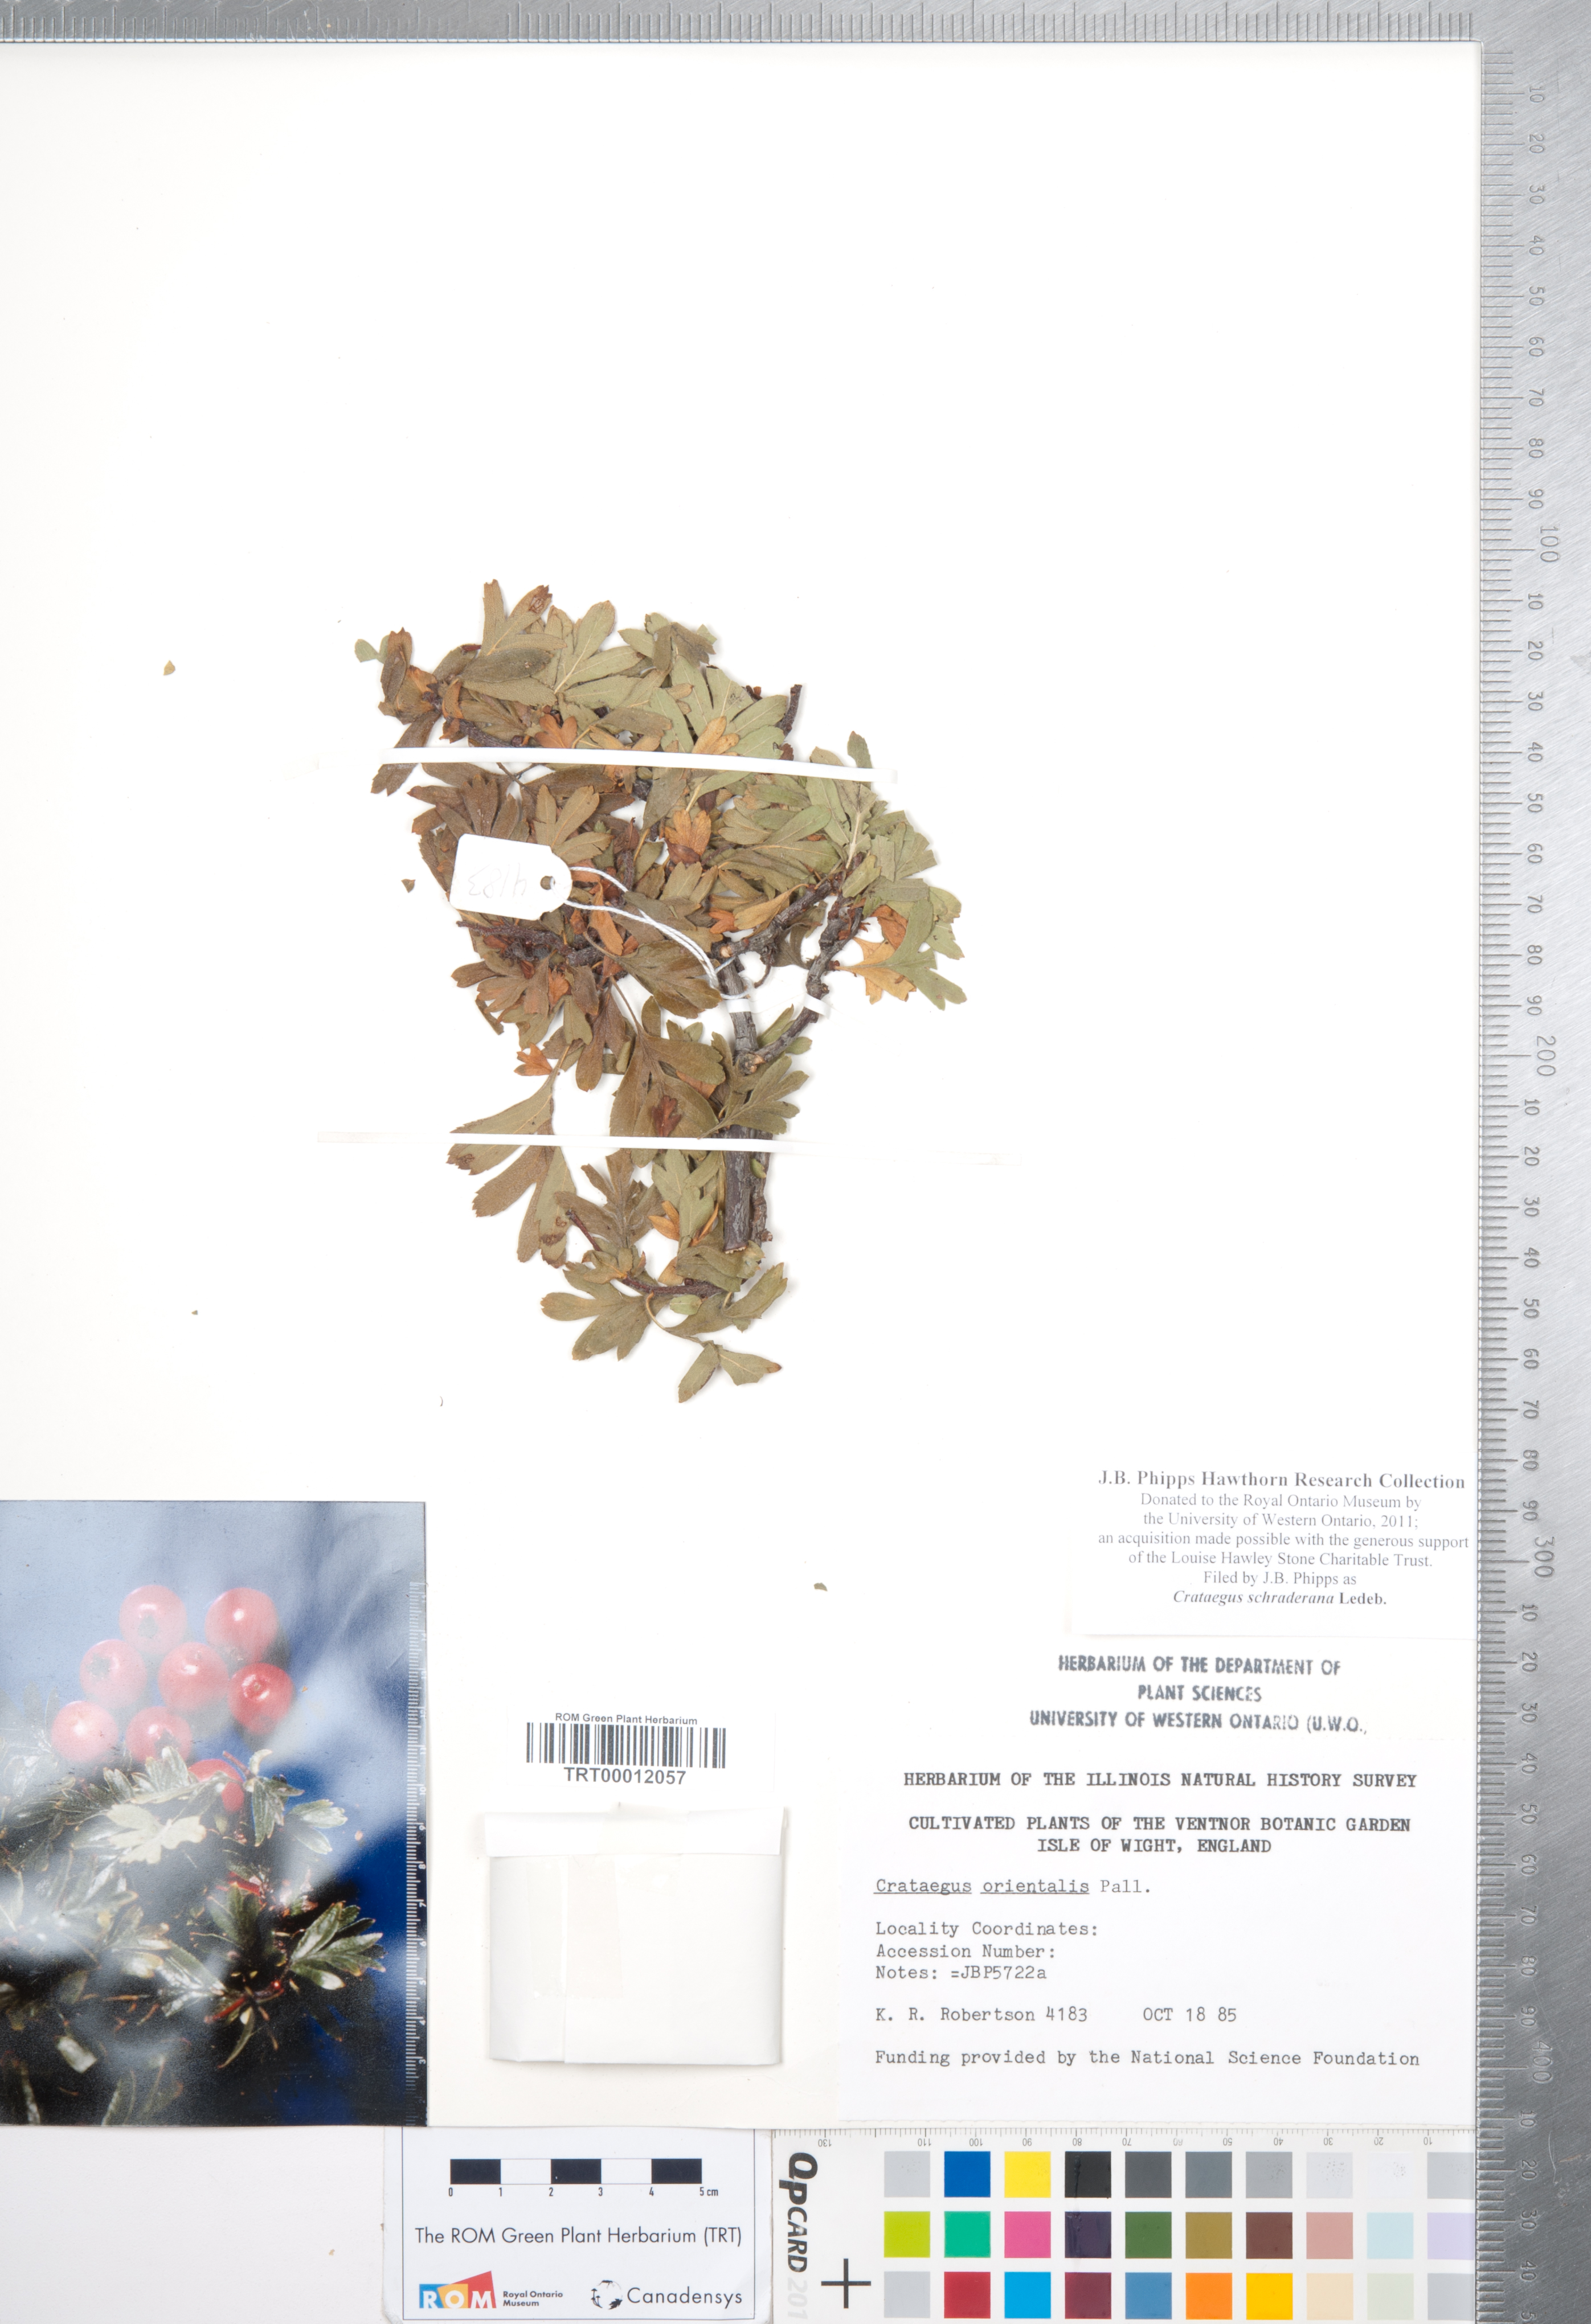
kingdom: Plantae
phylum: Tracheophyta
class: Magnoliopsida
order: Rosales
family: Rosaceae
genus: Crataegus
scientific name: Crataegus orientalis
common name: Oriental hawthorn
